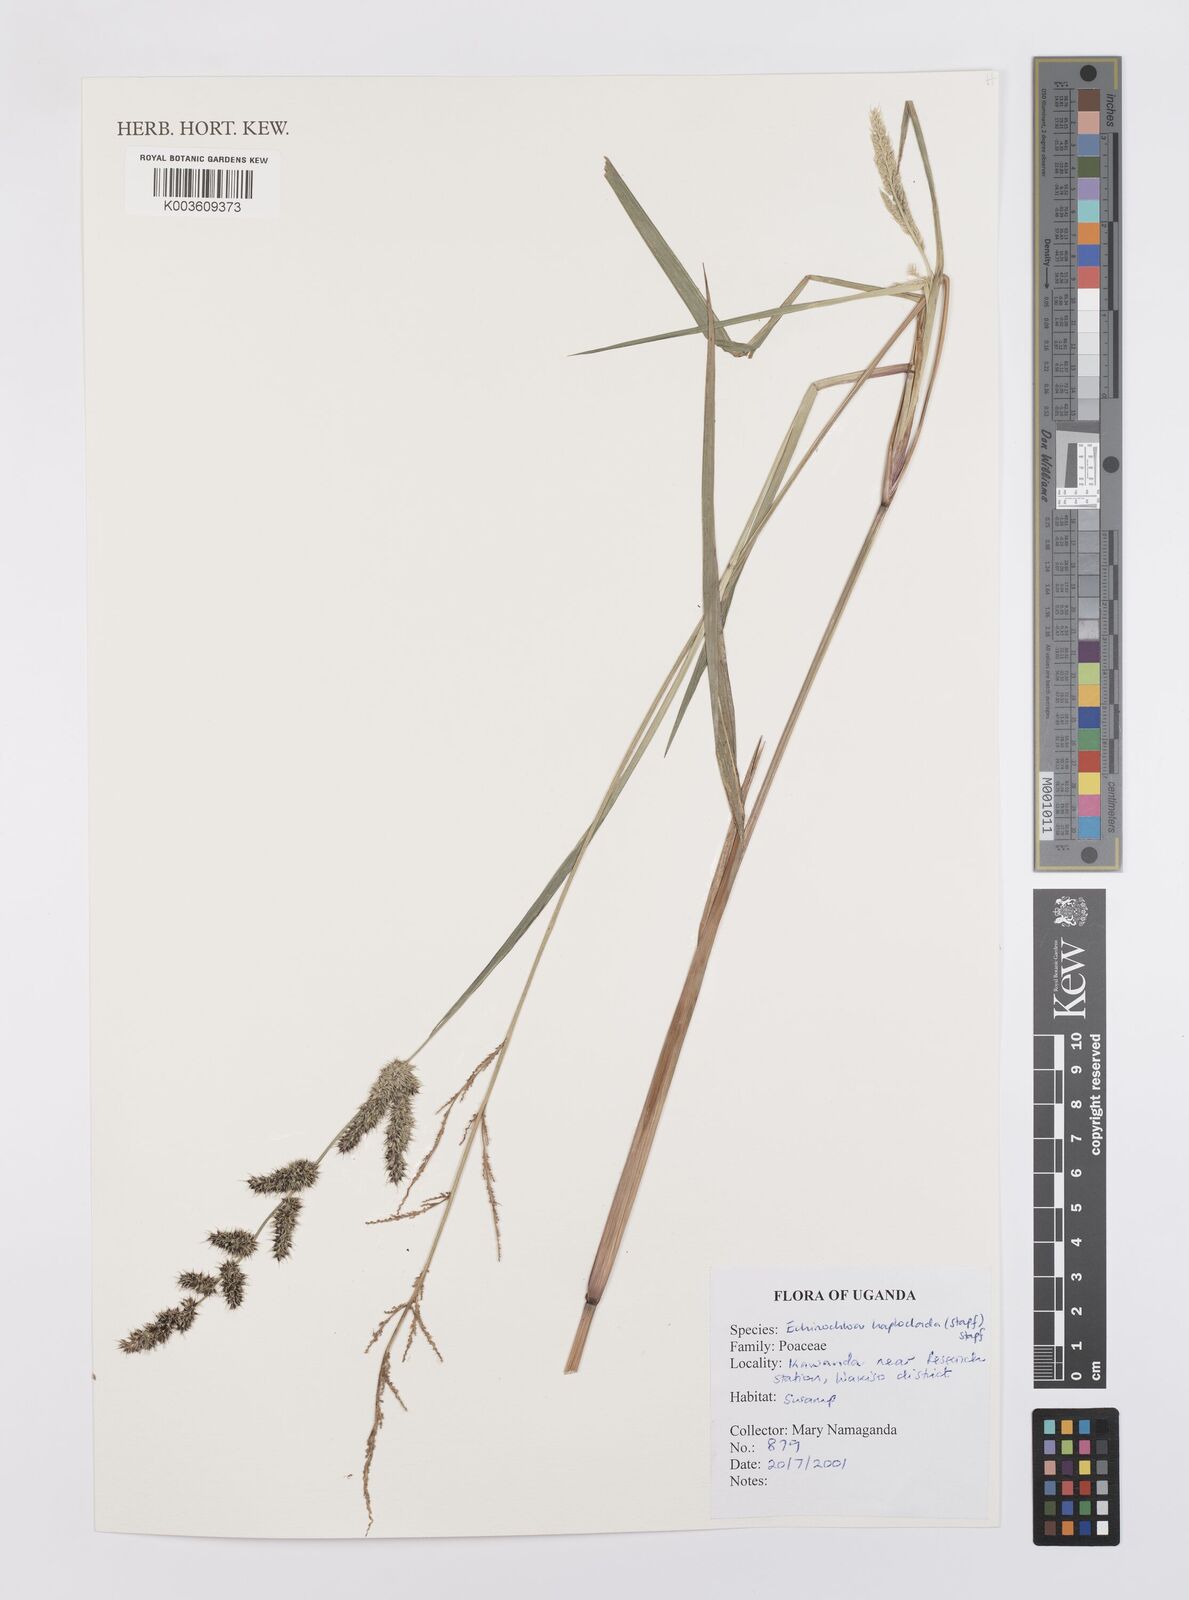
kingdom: Plantae
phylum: Tracheophyta
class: Liliopsida
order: Poales
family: Poaceae
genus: Echinochloa
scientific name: Echinochloa haploclada
